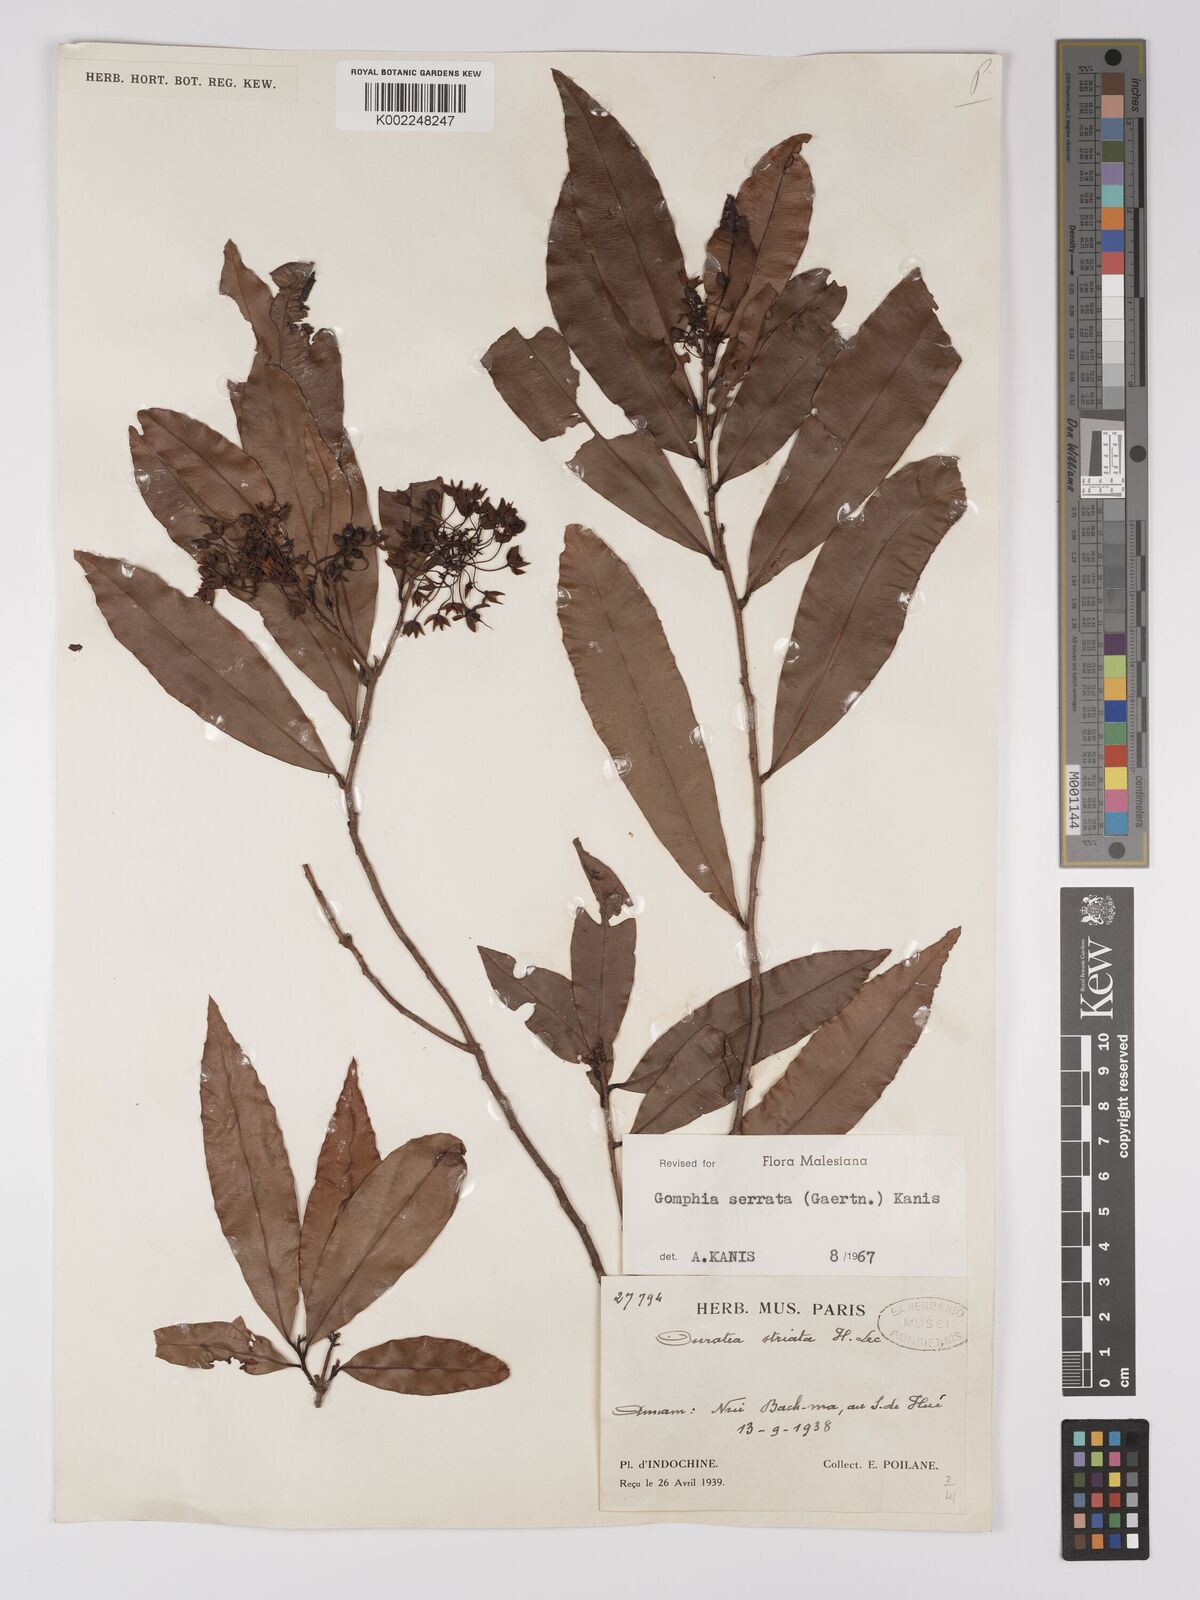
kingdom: Plantae
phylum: Tracheophyta
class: Magnoliopsida
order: Malpighiales
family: Ochnaceae
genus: Gomphia
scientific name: Gomphia serrata
